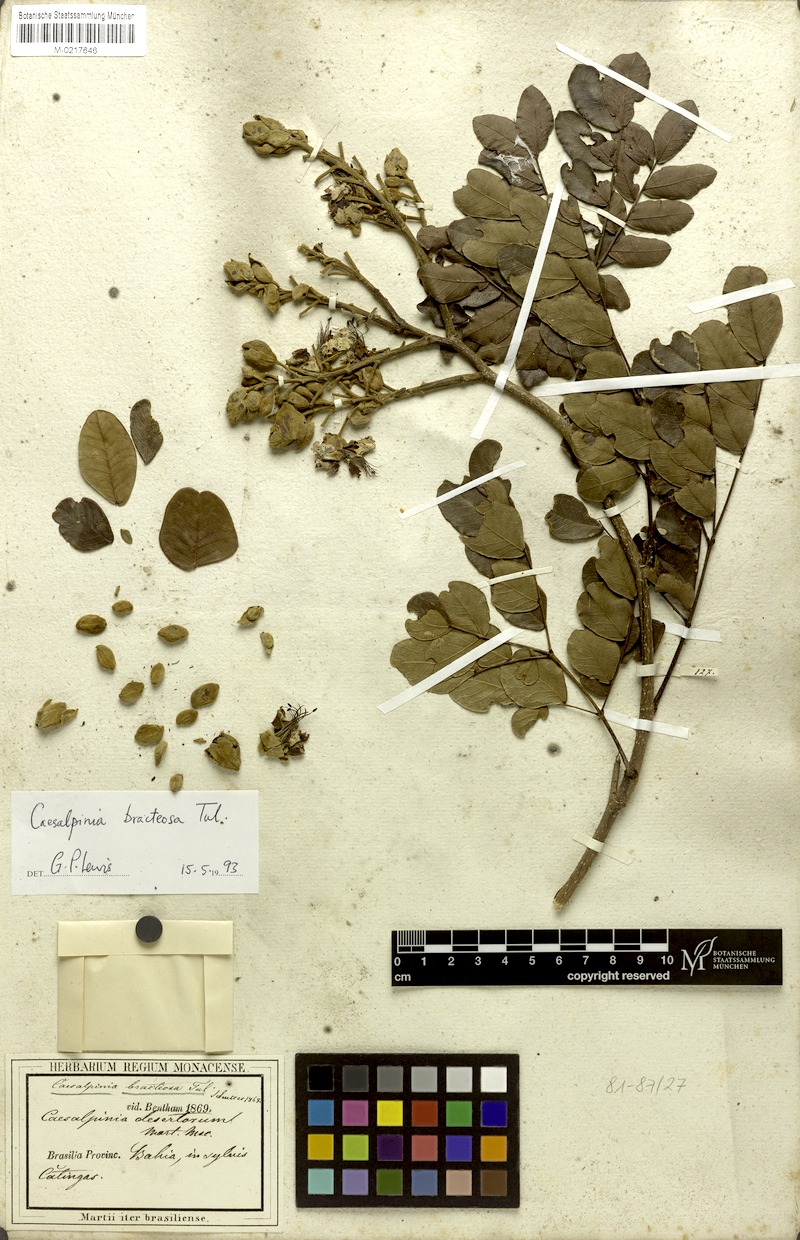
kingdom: Plantae
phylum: Tracheophyta
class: Magnoliopsida
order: Fabales
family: Fabaceae
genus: Cenostigma
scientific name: Cenostigma bracteosum
